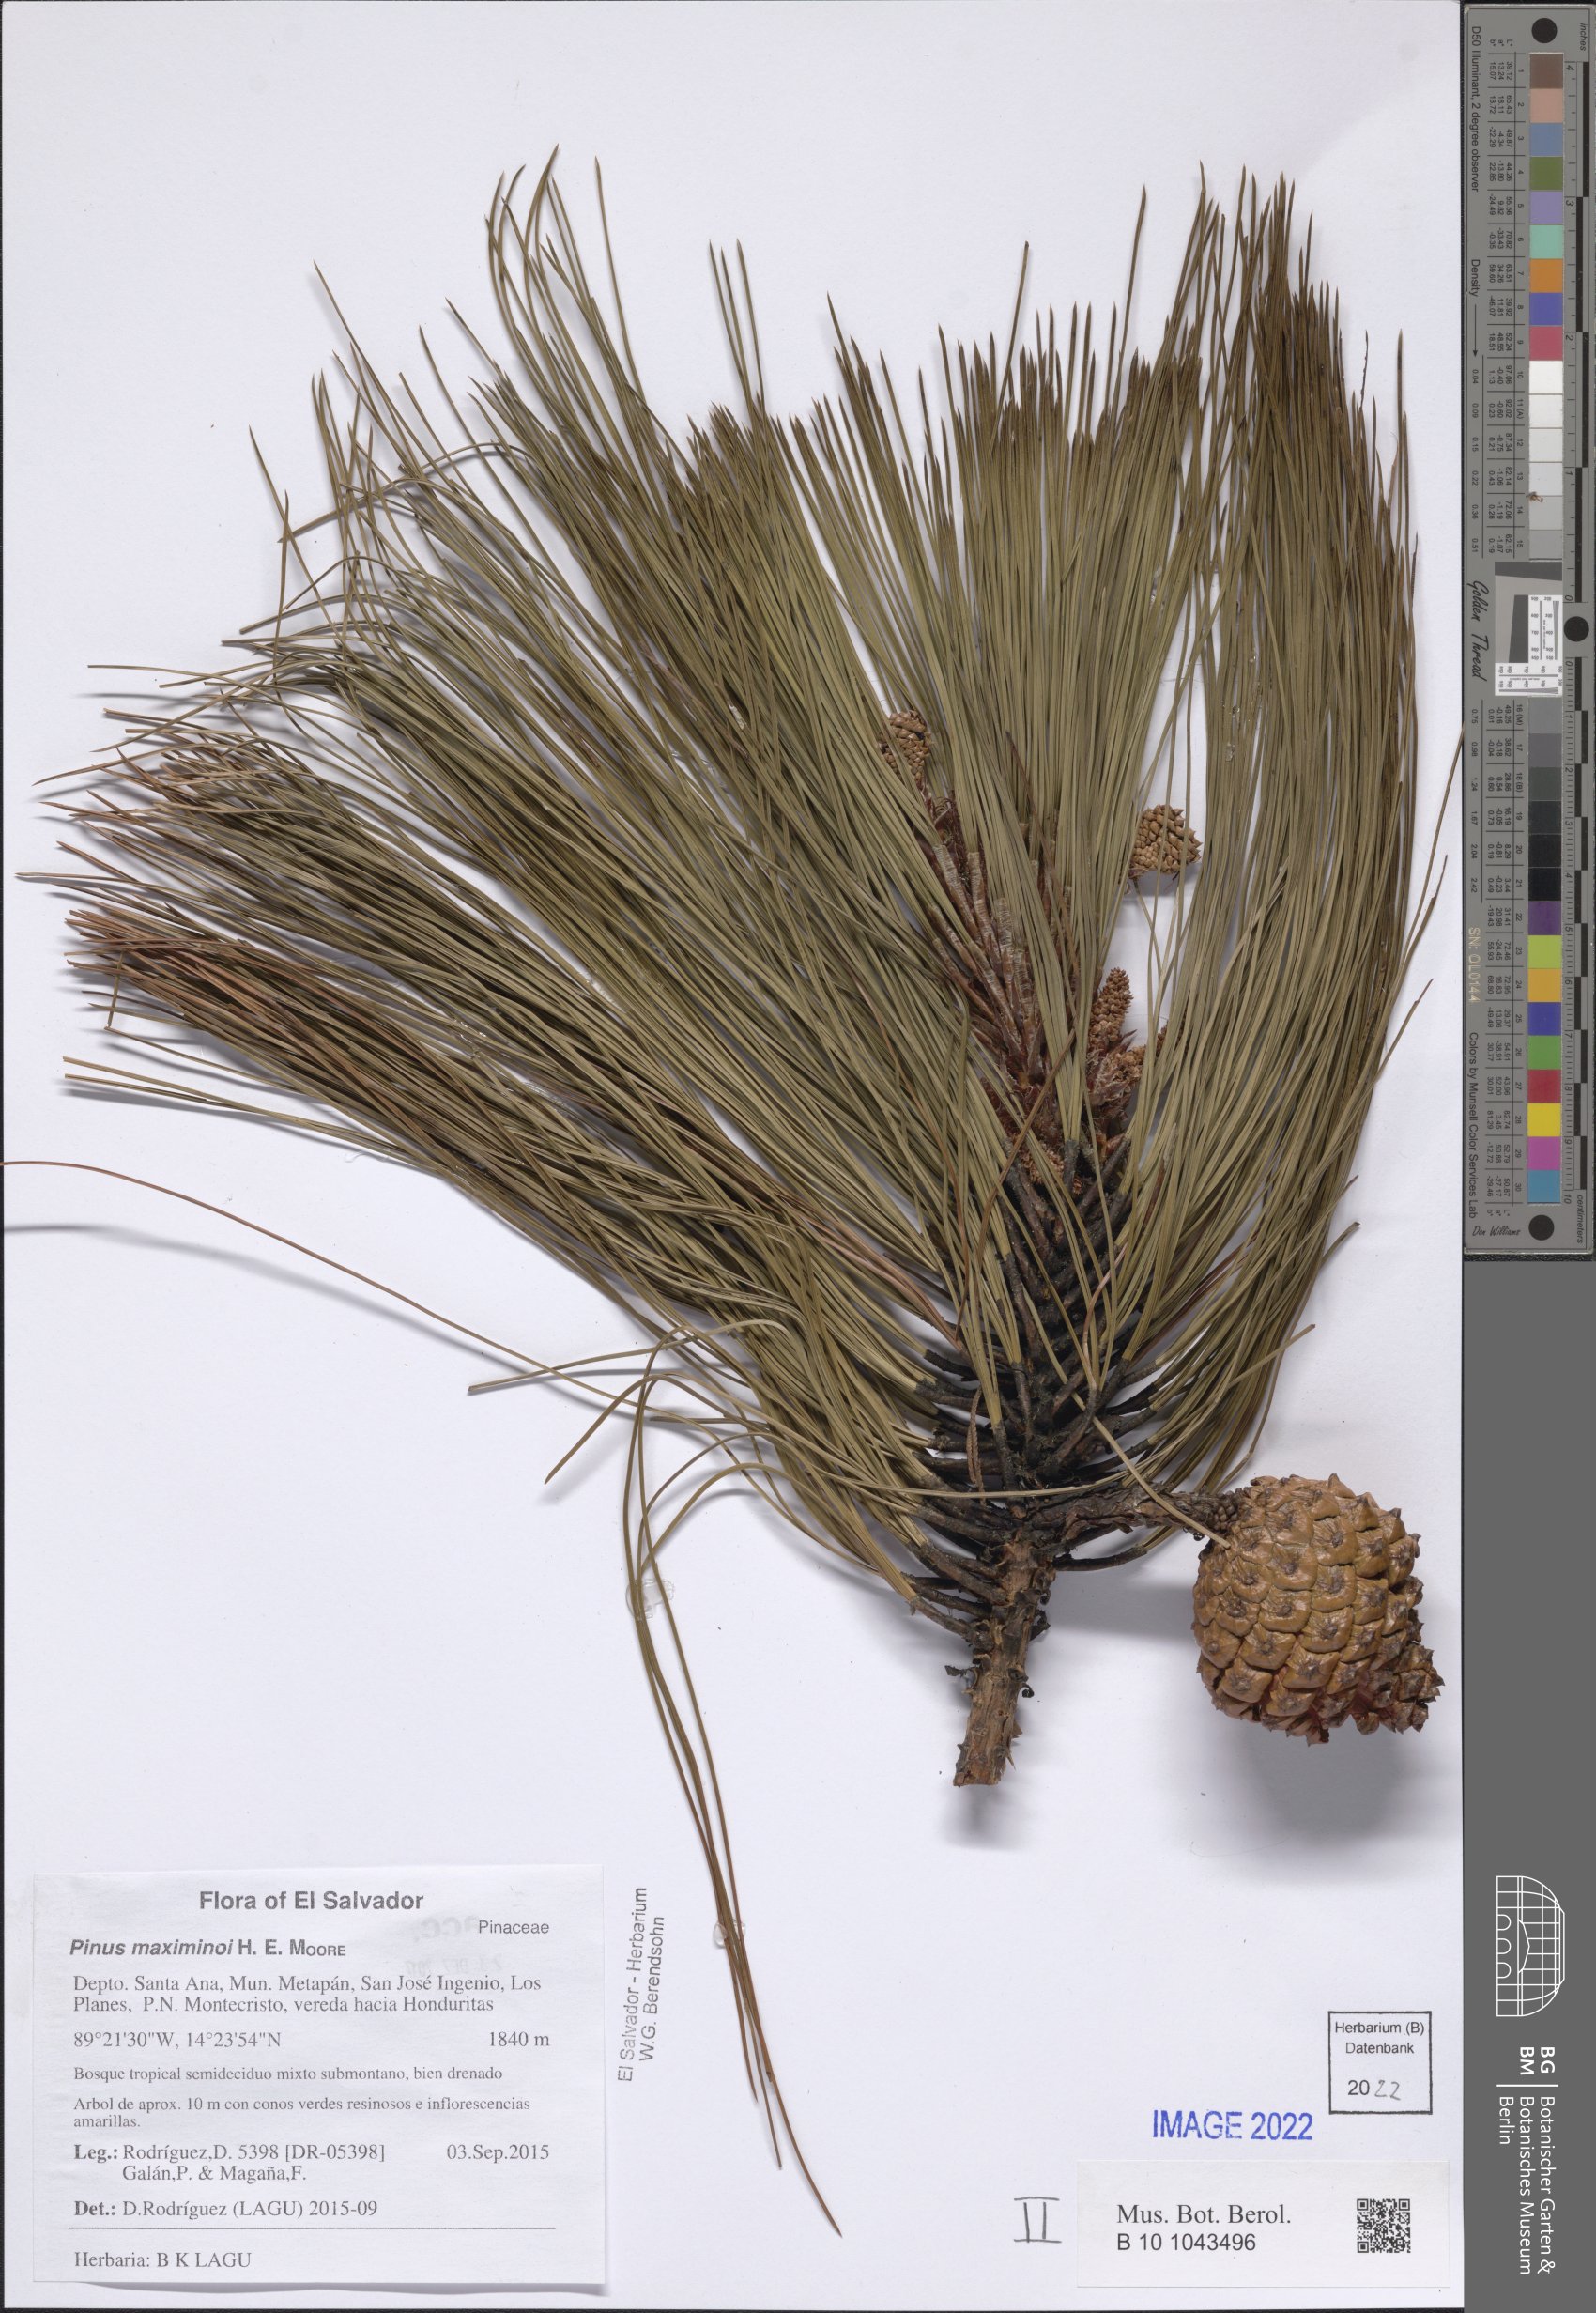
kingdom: Plantae
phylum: Tracheophyta
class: Pinopsida
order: Pinales
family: Pinaceae
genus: Pinus
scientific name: Pinus maximinoi
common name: Thin-leaf pine
